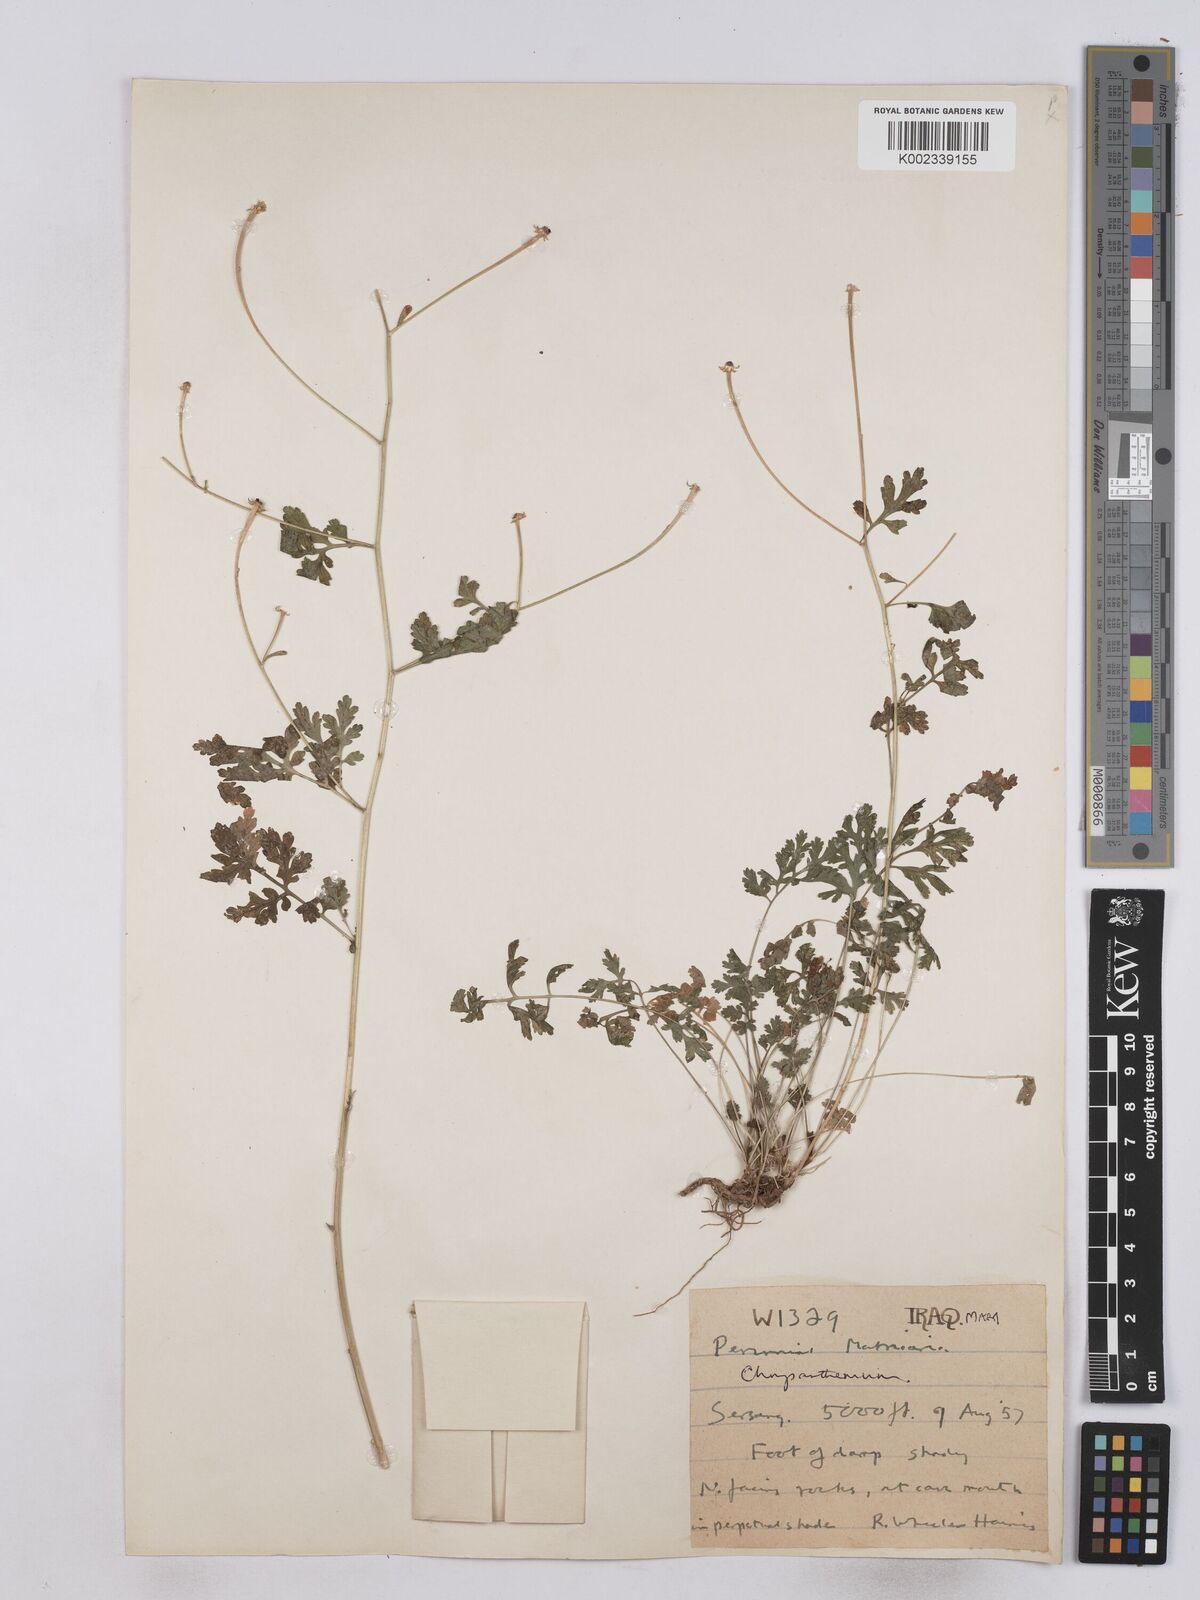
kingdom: Plantae
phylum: Tracheophyta
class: Magnoliopsida
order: Asterales
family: Asteraceae
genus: Tanacetum
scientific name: Tanacetum partheniifolium
